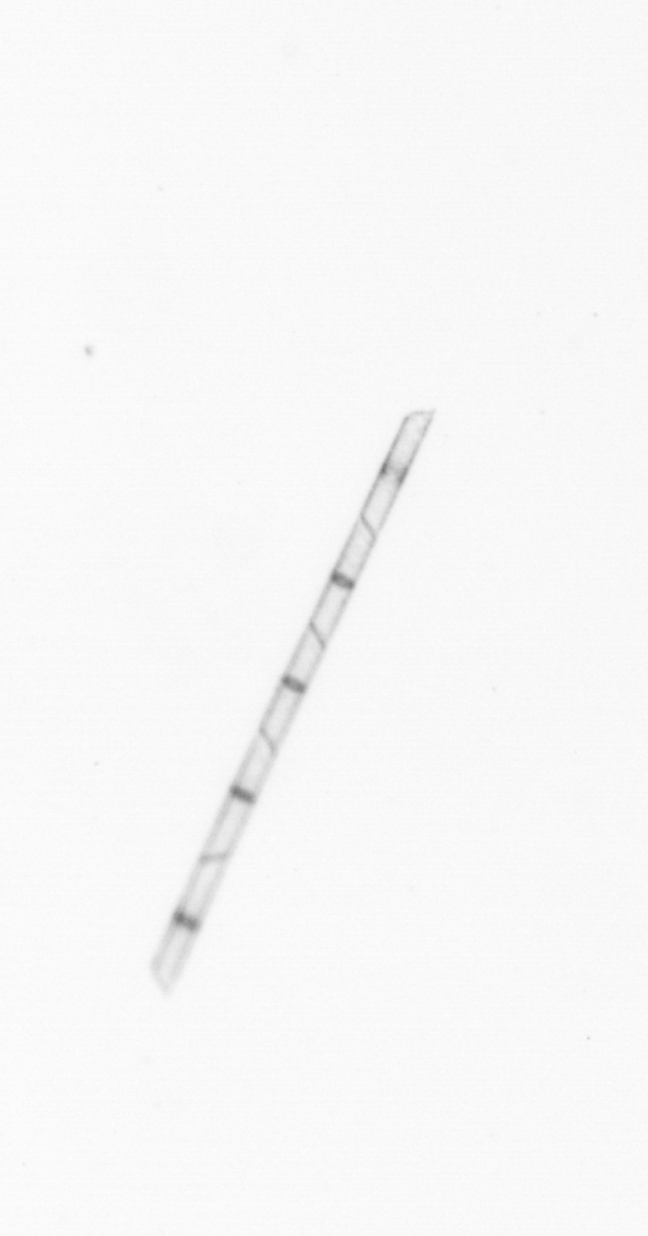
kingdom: Chromista
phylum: Ochrophyta
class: Bacillariophyceae
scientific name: Bacillariophyceae
